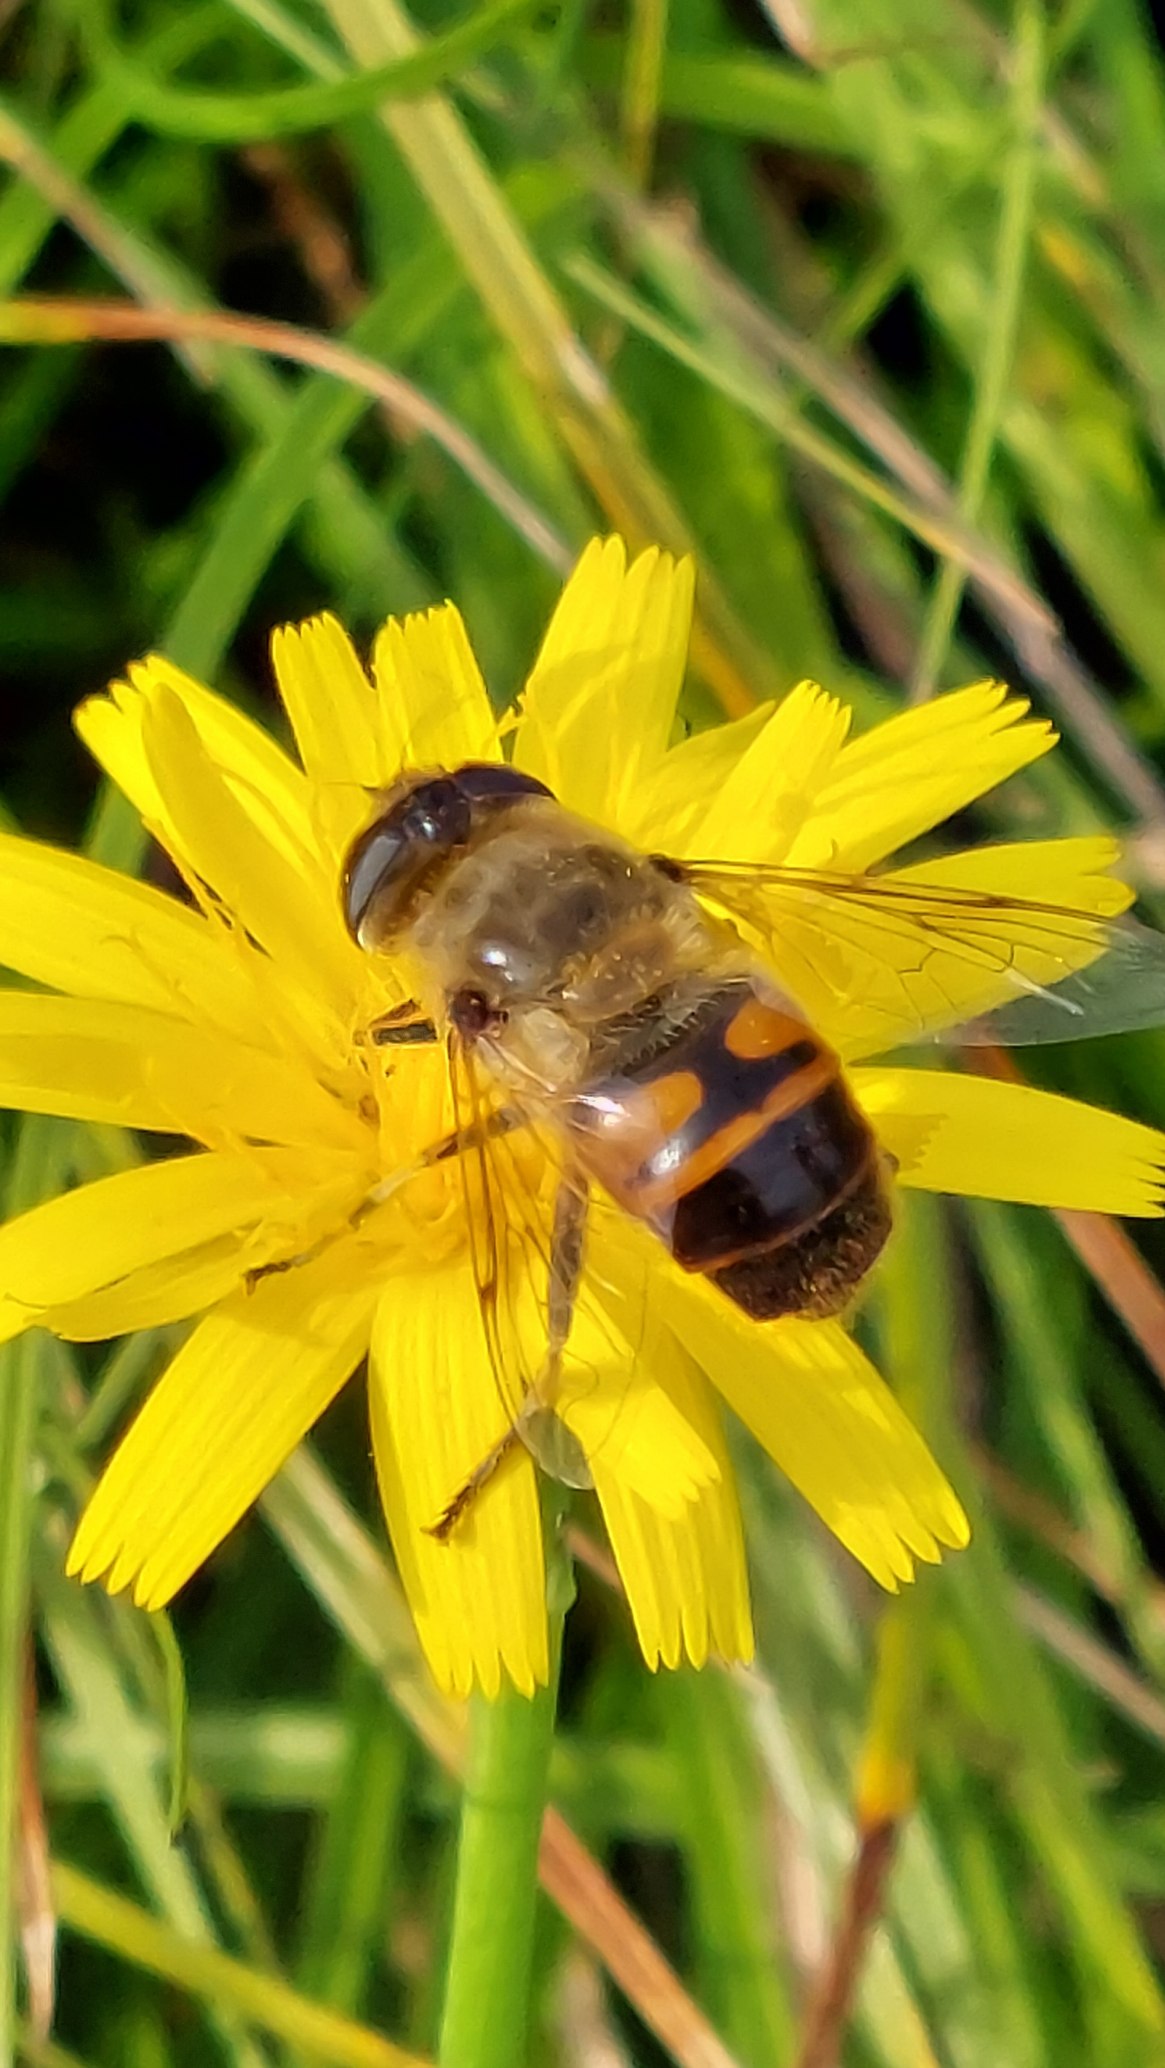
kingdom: Animalia
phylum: Arthropoda
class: Insecta
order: Diptera
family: Syrphidae
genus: Eristalis
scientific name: Eristalis tenax
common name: Droneflue
